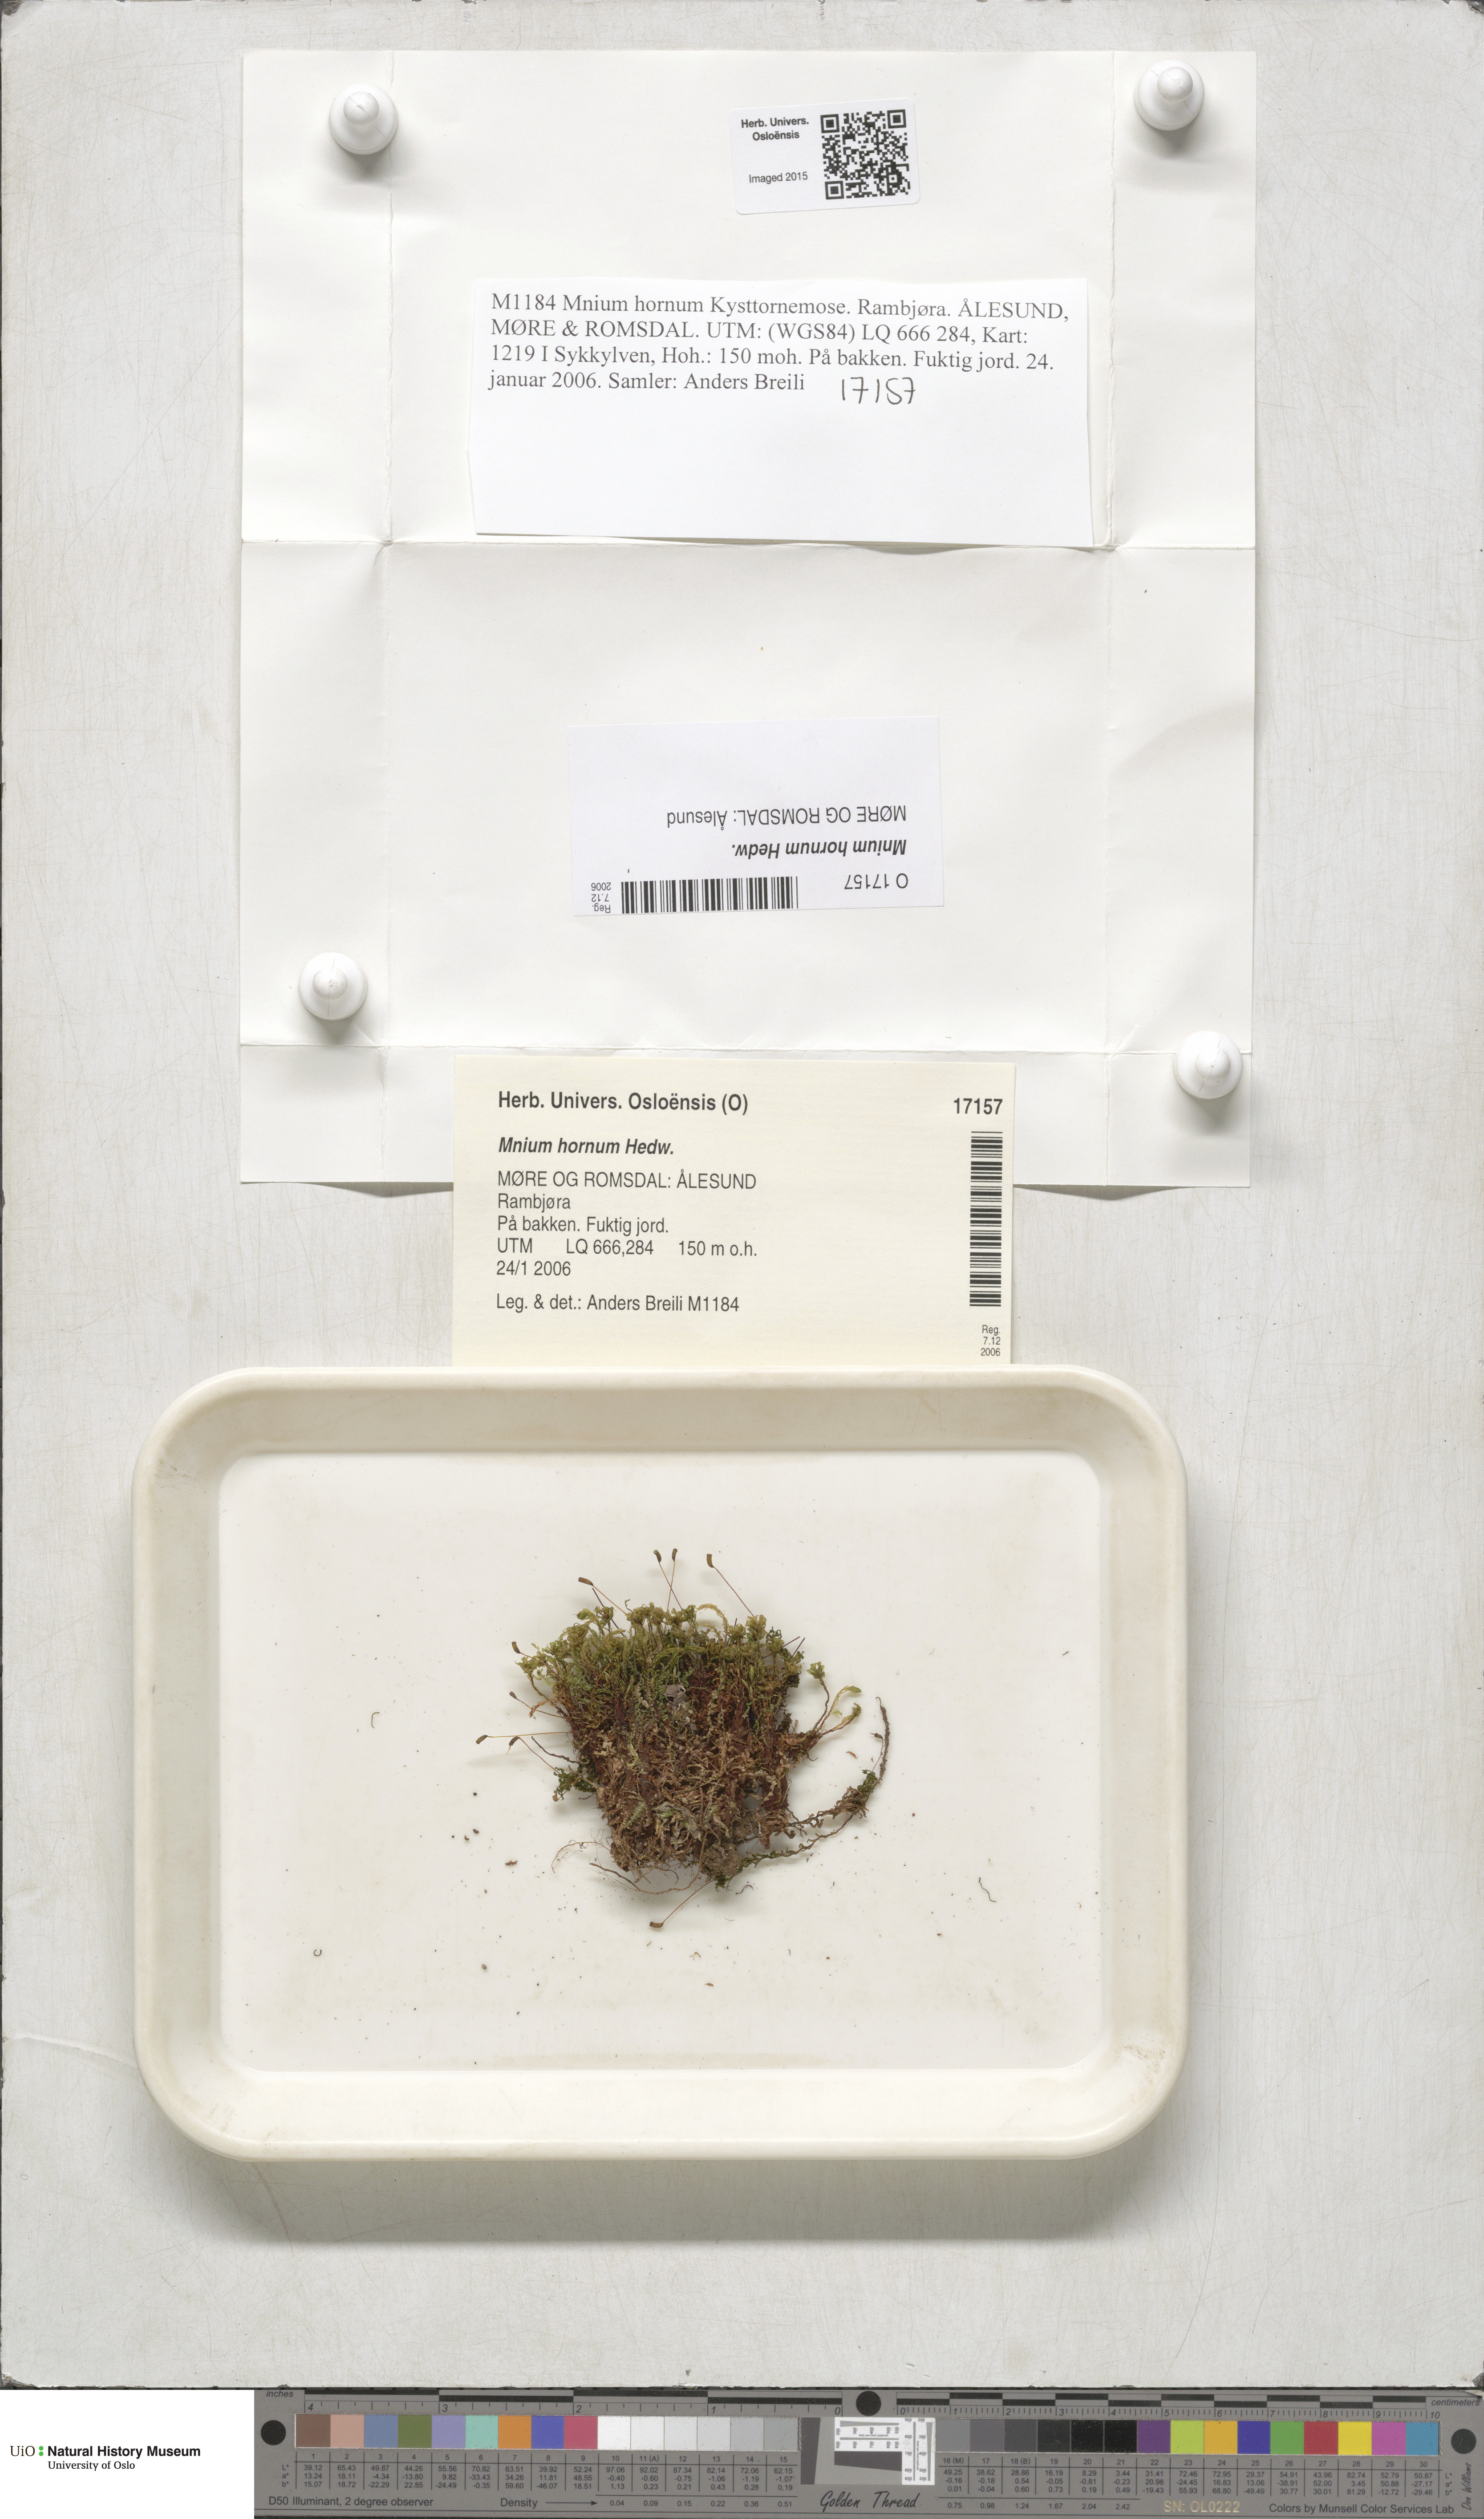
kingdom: Plantae
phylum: Bryophyta
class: Bryopsida
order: Bryales
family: Mniaceae
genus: Mnium
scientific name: Mnium hornum
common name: Swan's-neck leafy moss
